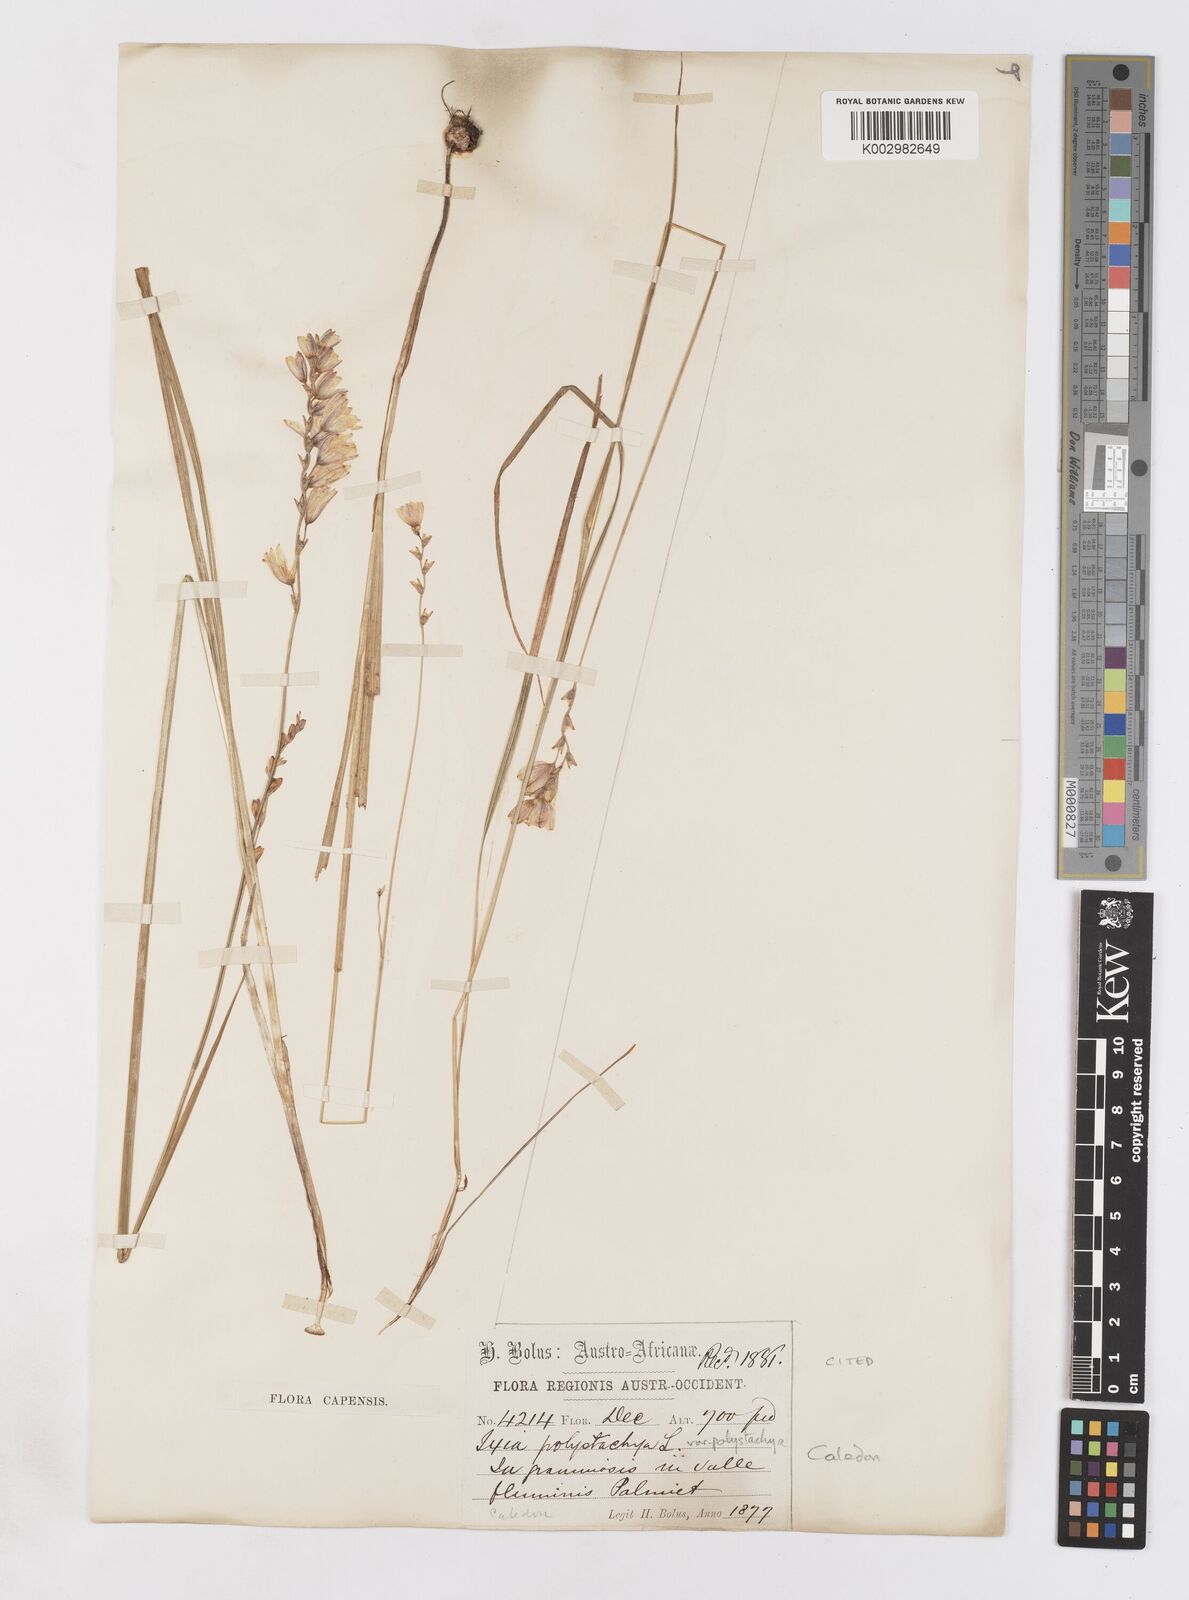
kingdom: Plantae
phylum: Tracheophyta
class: Liliopsida
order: Asparagales
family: Iridaceae
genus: Ixia
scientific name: Ixia polystachya
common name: White-and-yellow-flower cornlily
